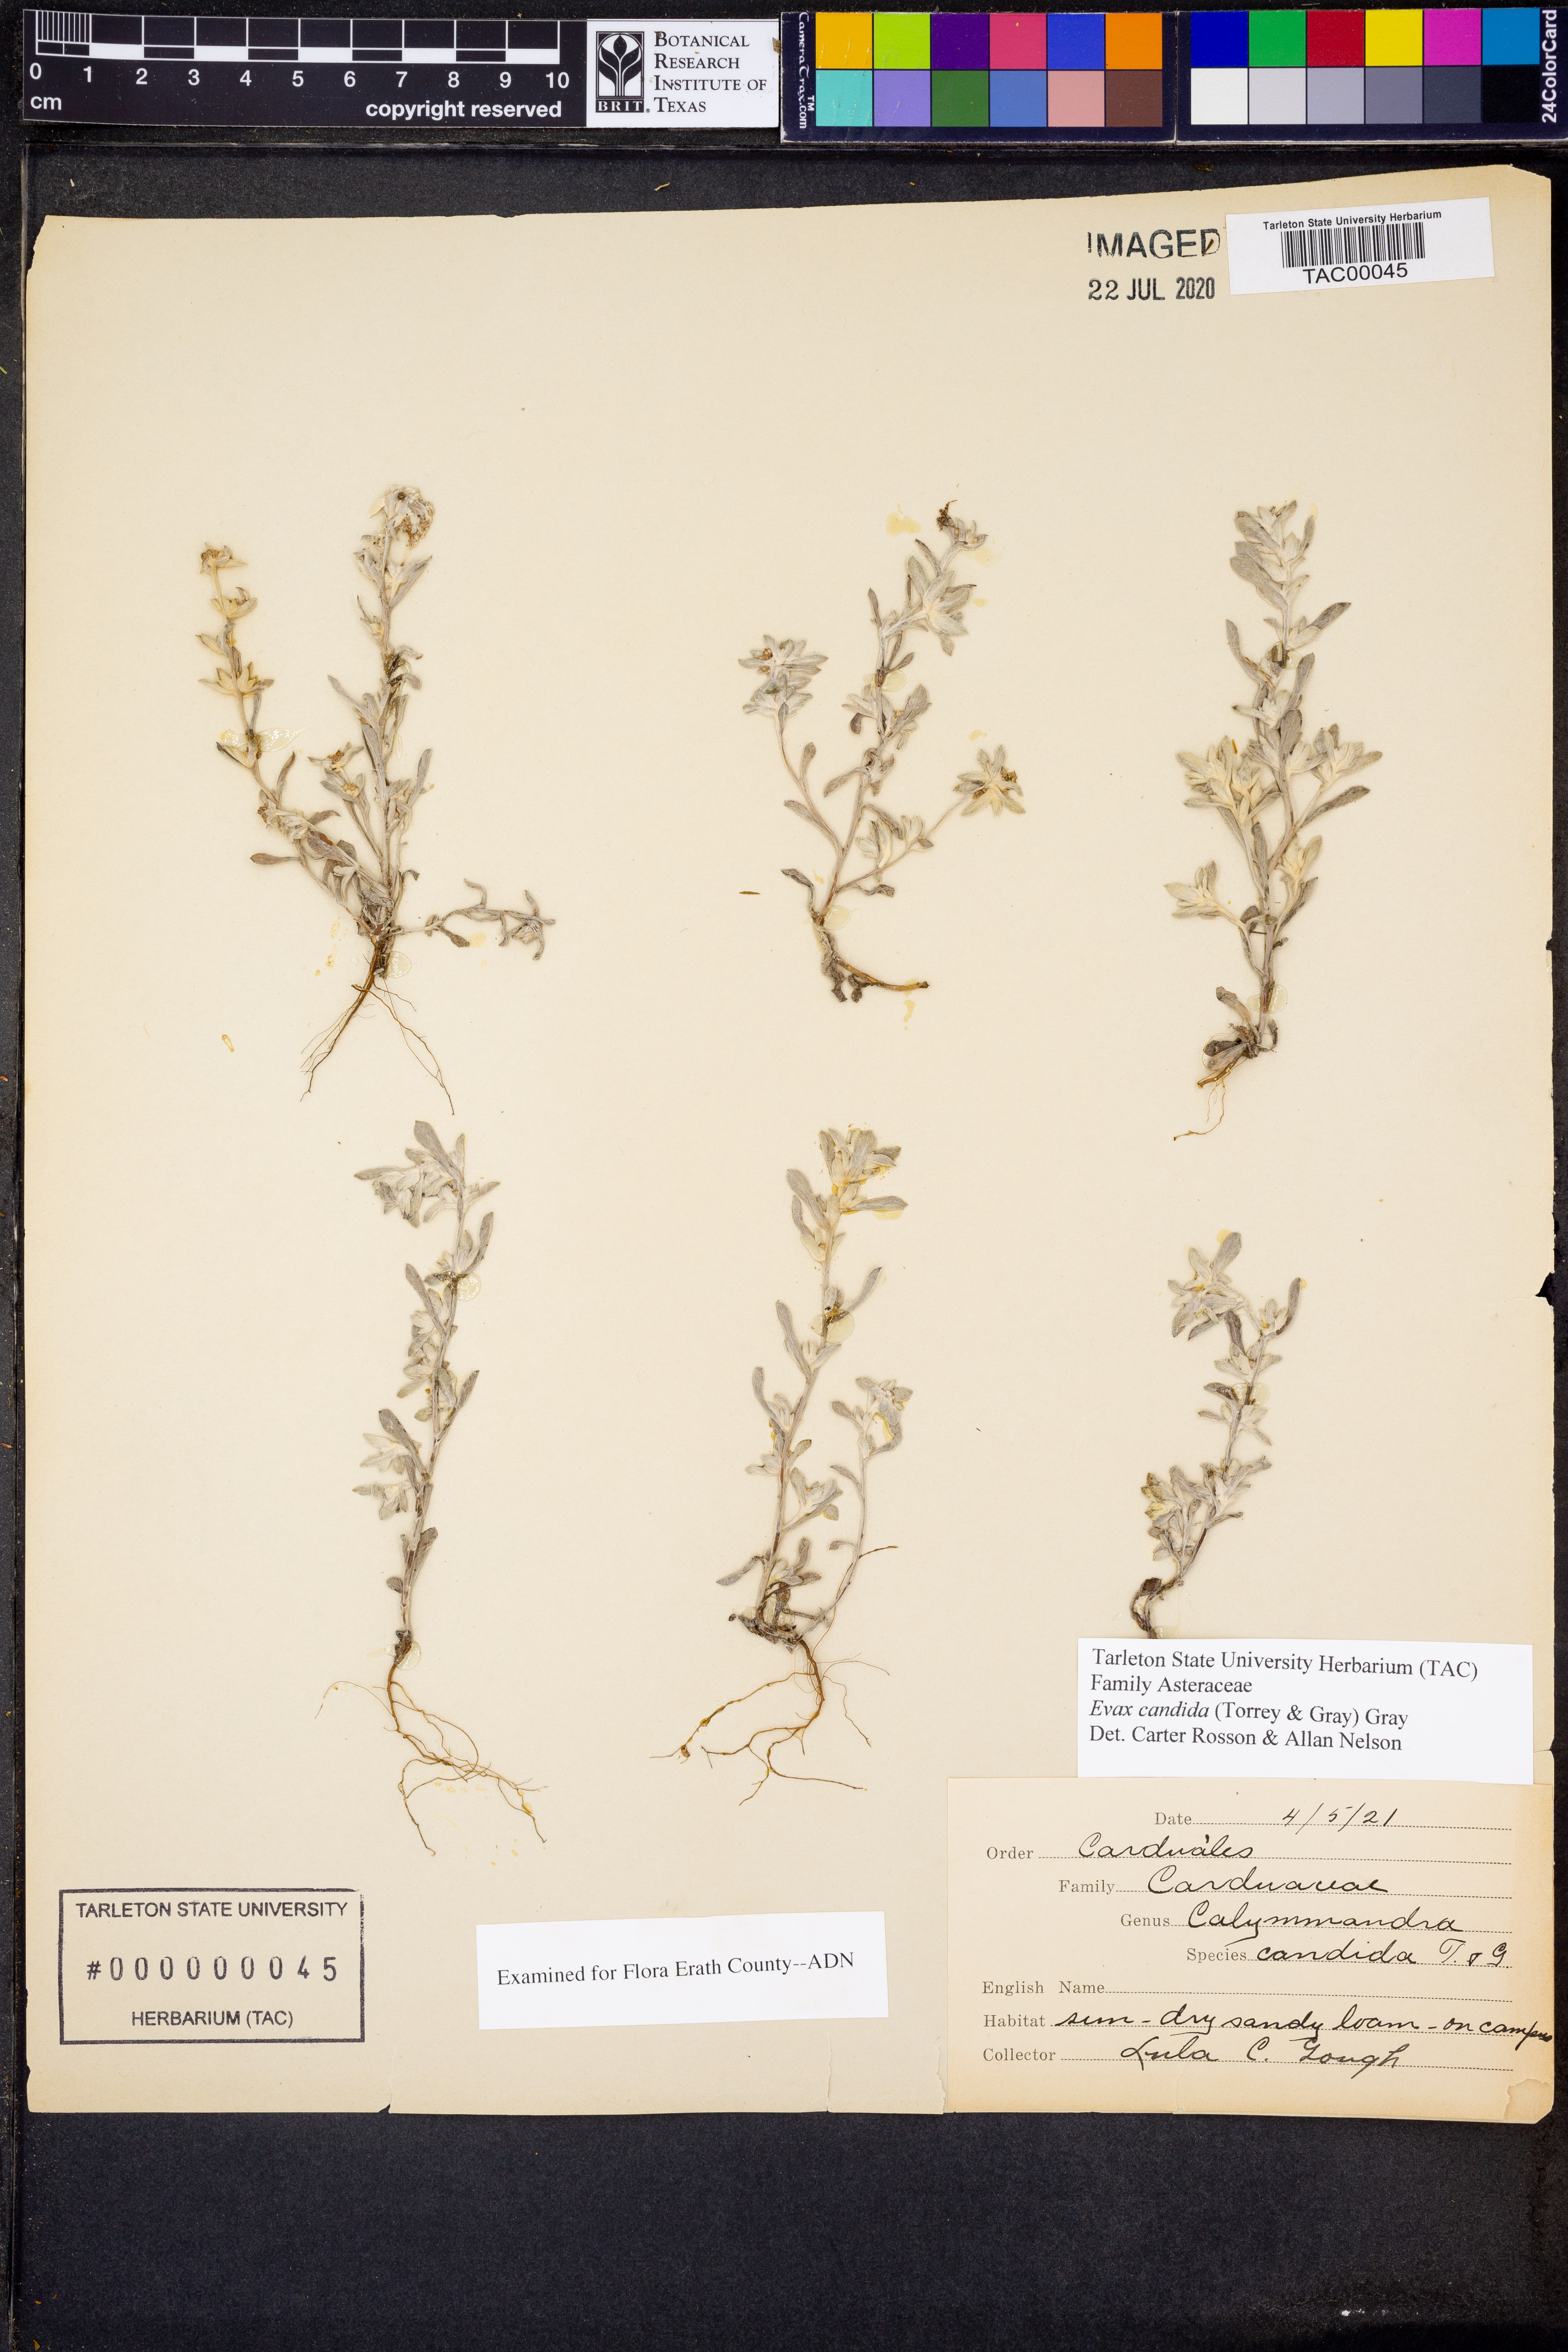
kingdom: Plantae
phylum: Tracheophyta
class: Magnoliopsida
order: Asterales
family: Asteraceae
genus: Diaperia
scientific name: Diaperia candida
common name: Silver rabbit-tobacco
